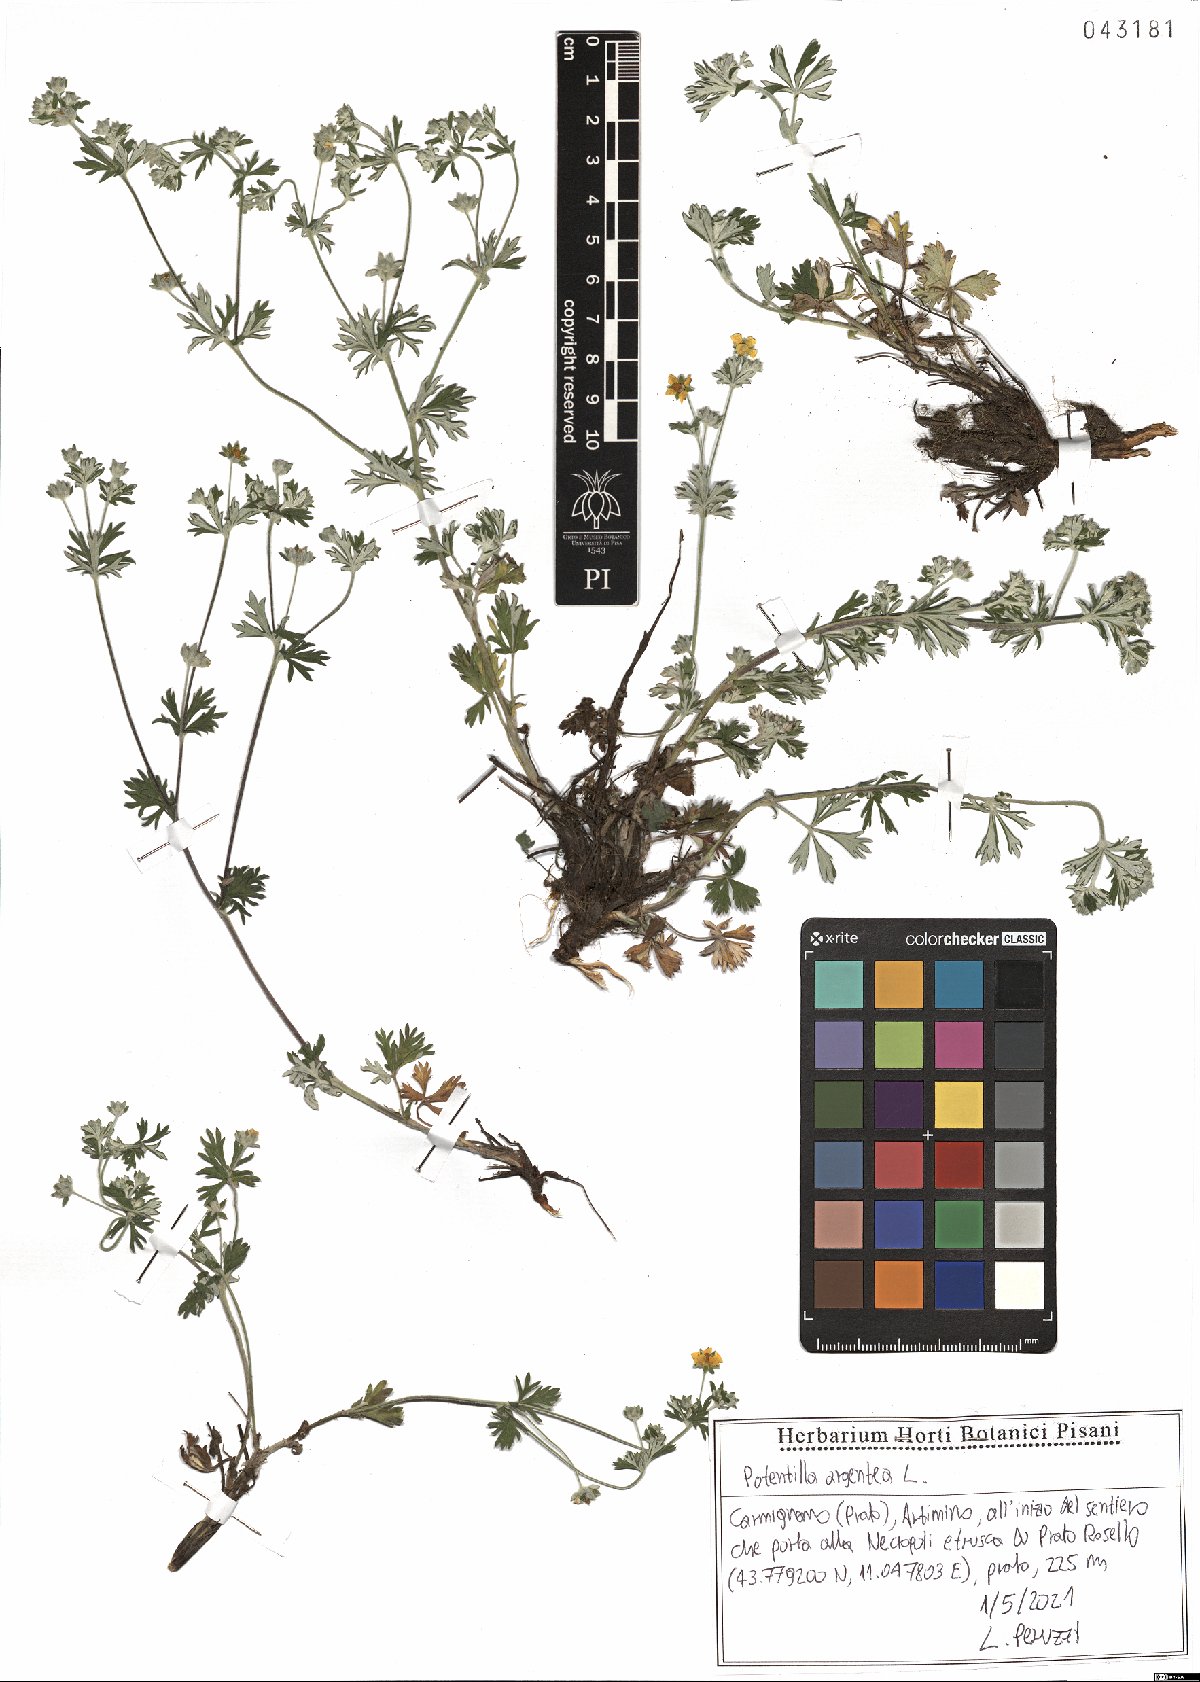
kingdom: Plantae
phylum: Tracheophyta
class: Magnoliopsida
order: Rosales
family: Rosaceae
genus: Potentilla
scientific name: Potentilla argentea
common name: Hoary cinquefoil
